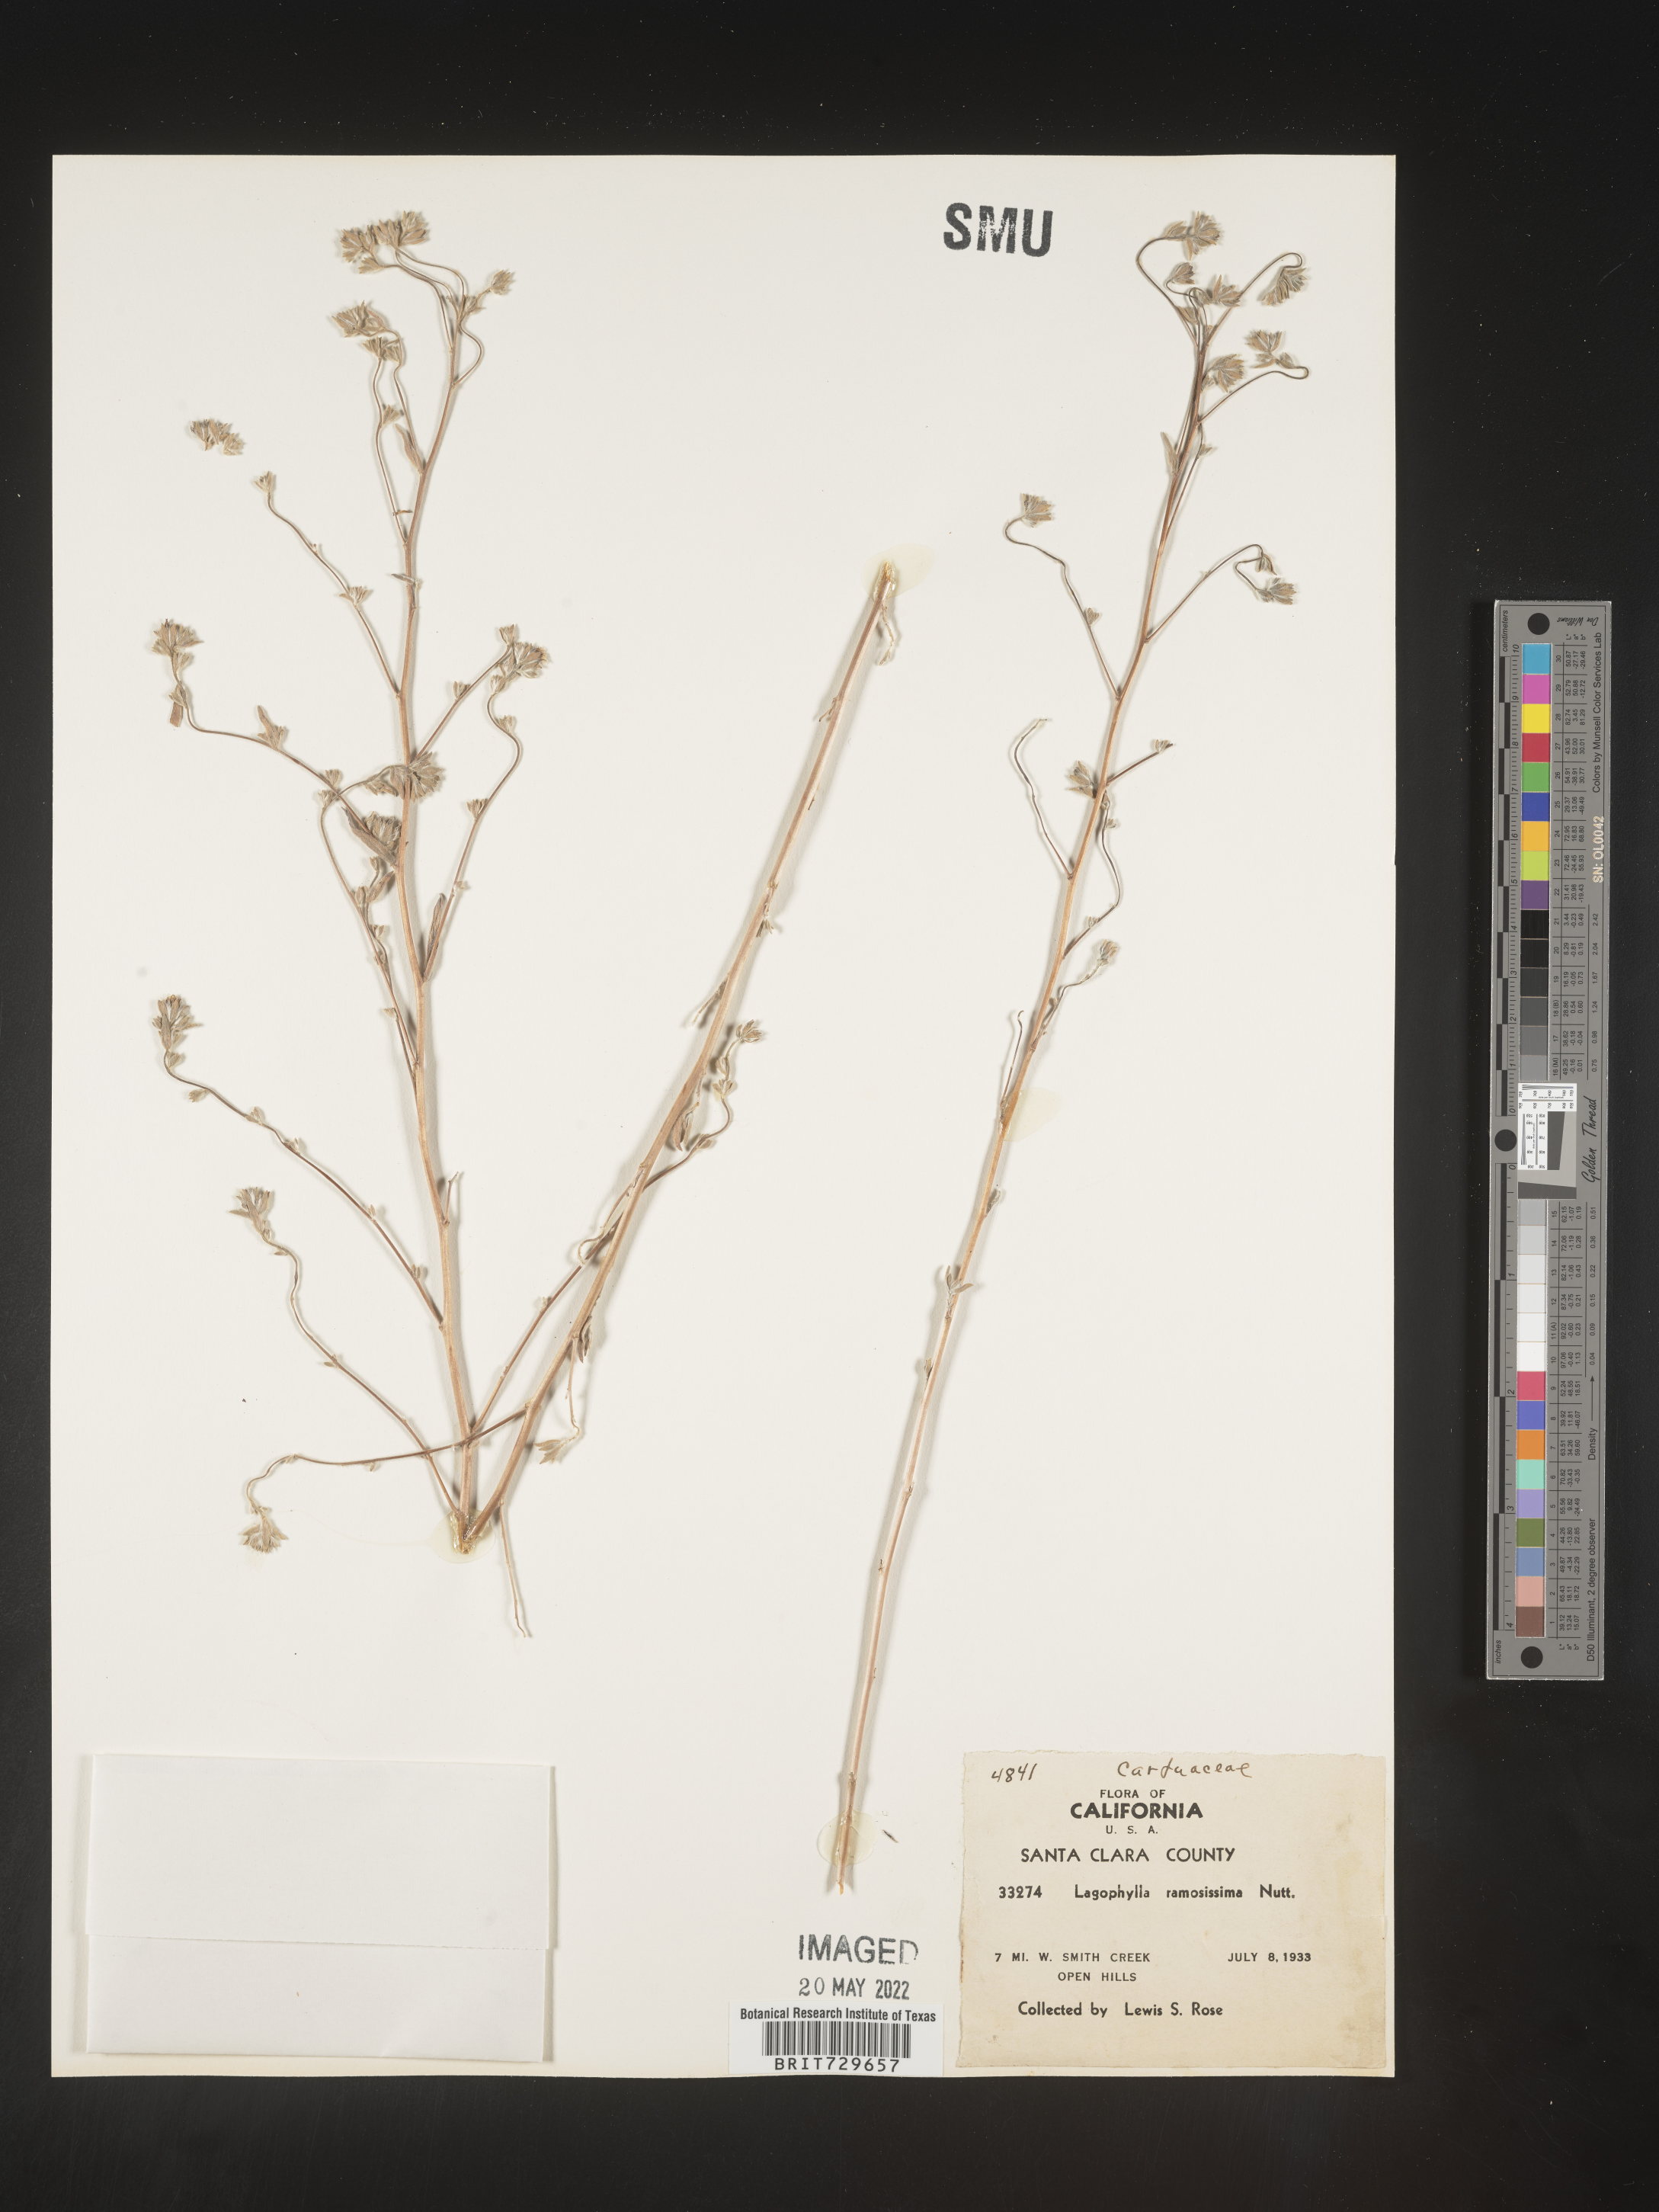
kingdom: Plantae
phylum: Tracheophyta
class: Magnoliopsida
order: Asterales
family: Asteraceae
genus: Lagophylla
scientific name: Lagophylla
